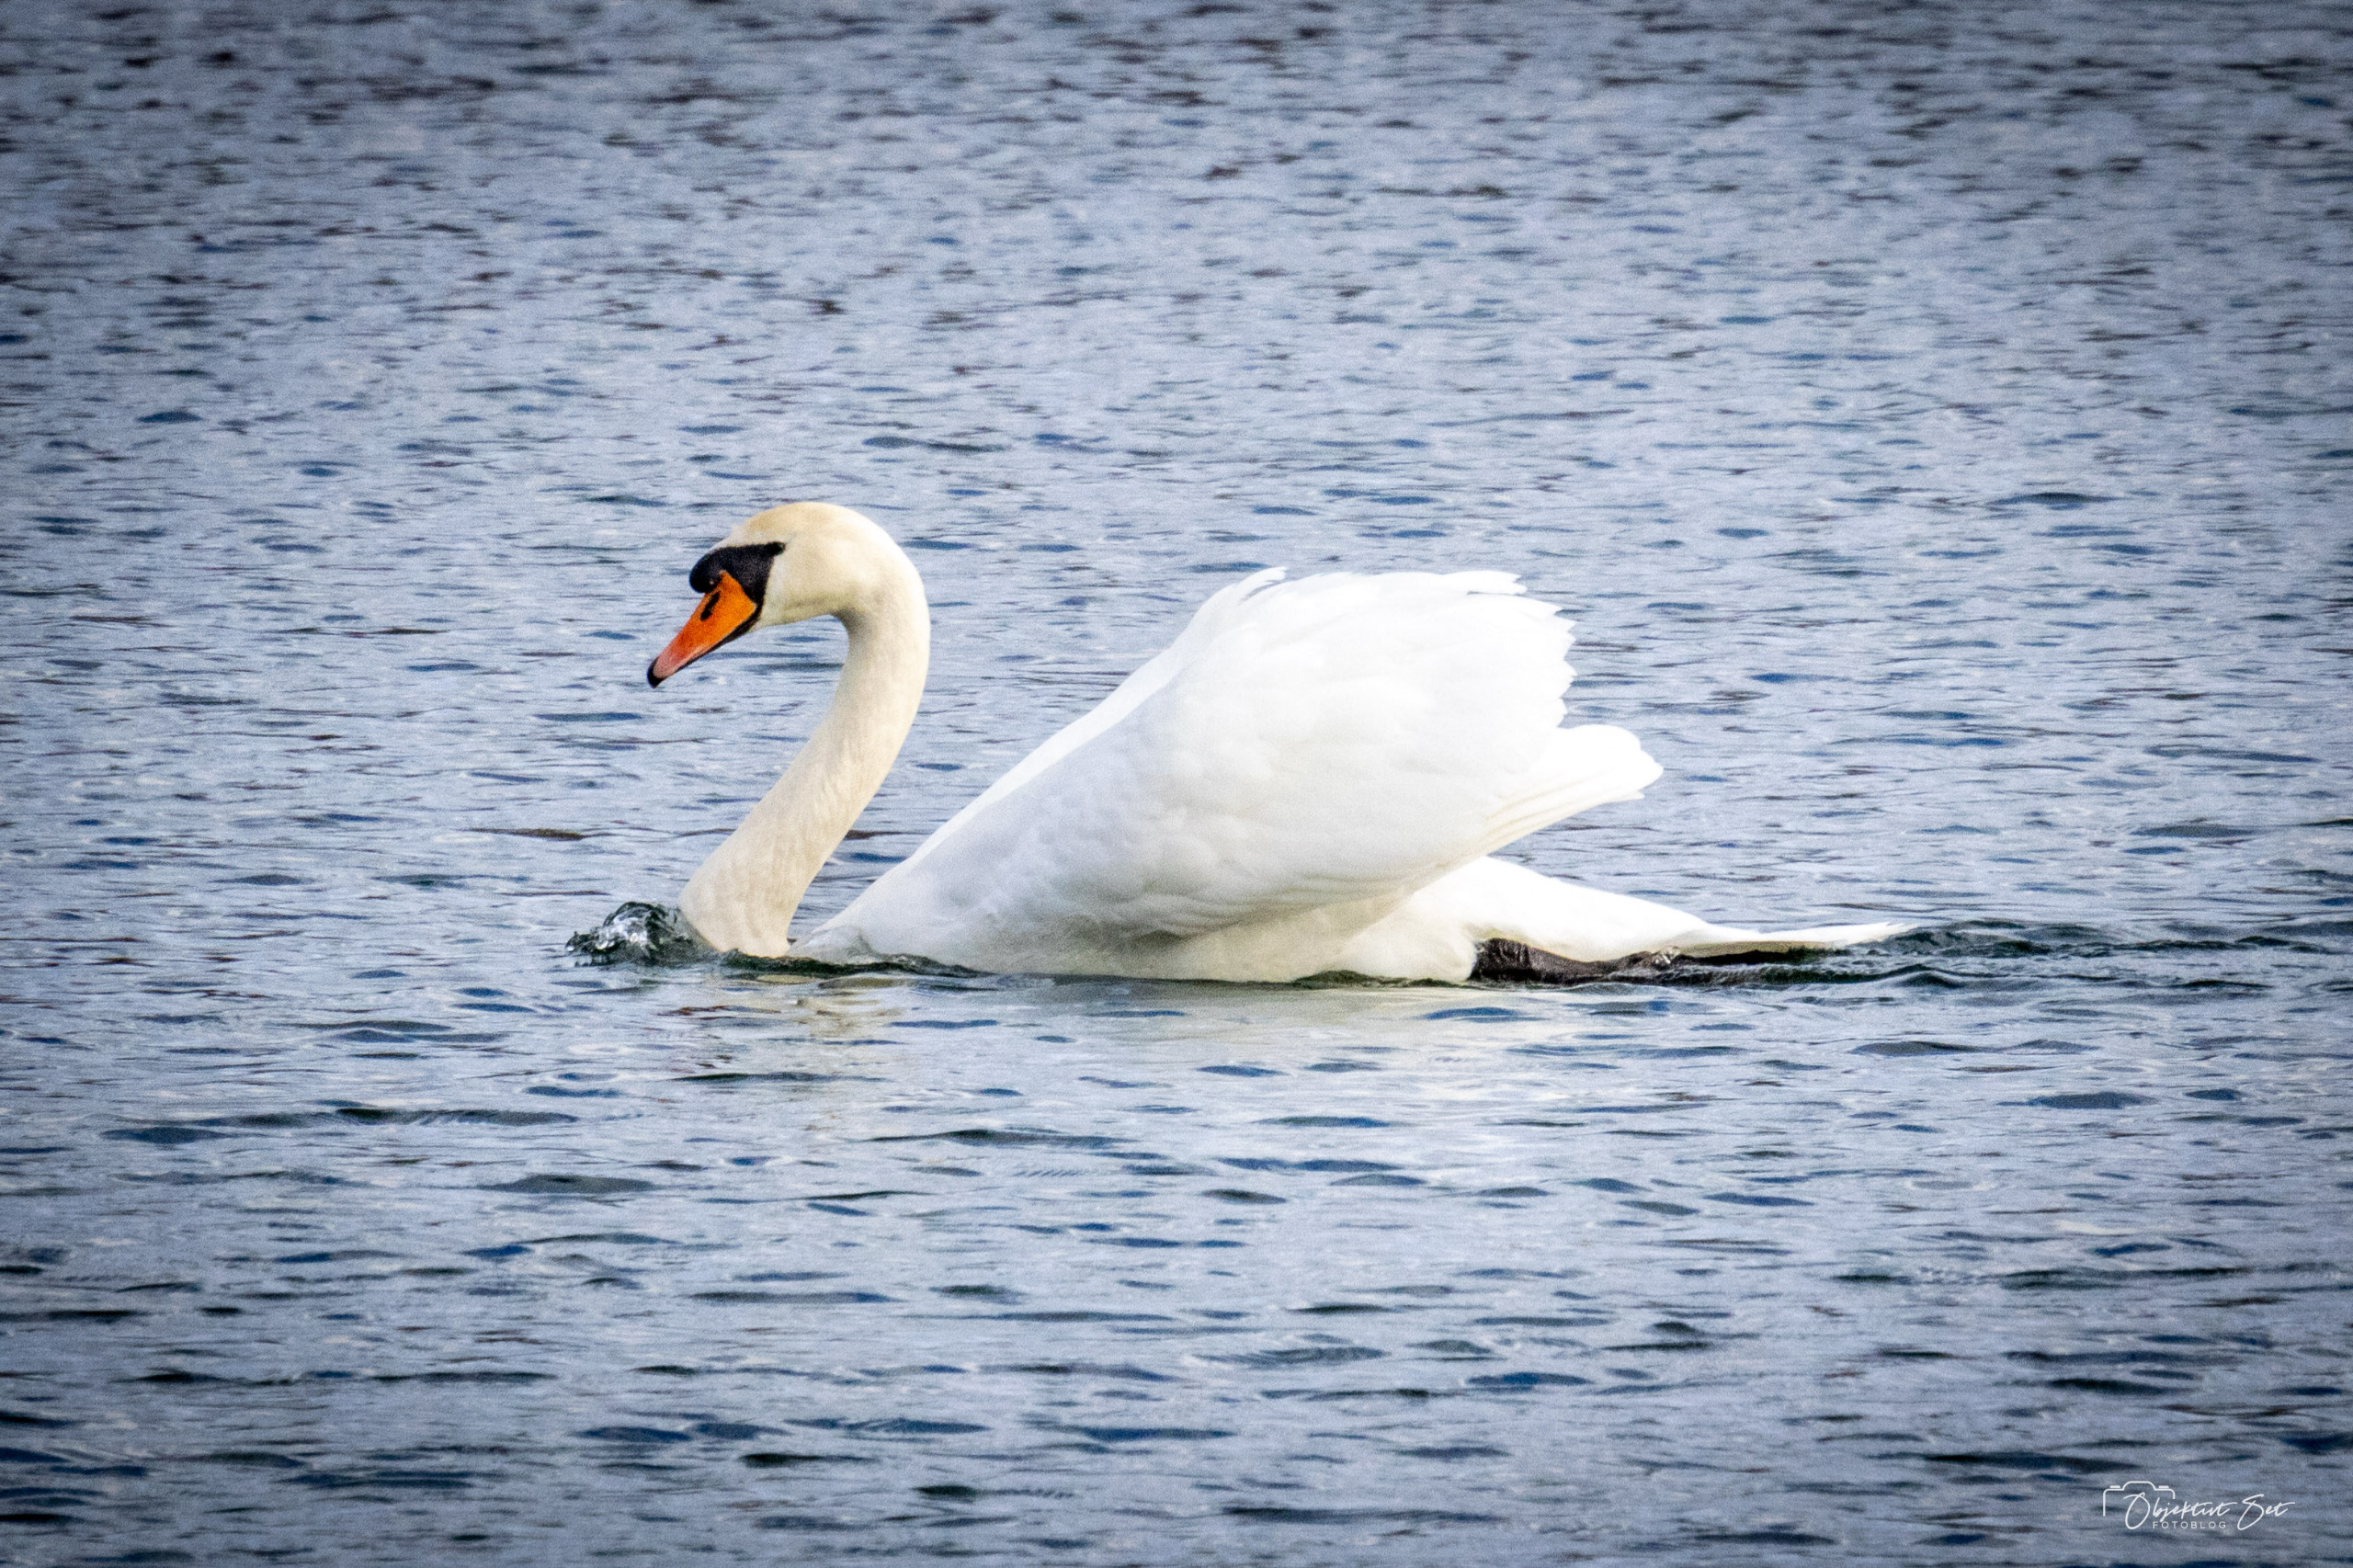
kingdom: Animalia
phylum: Chordata
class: Aves
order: Anseriformes
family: Anatidae
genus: Cygnus
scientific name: Cygnus olor
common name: Knopsvane
